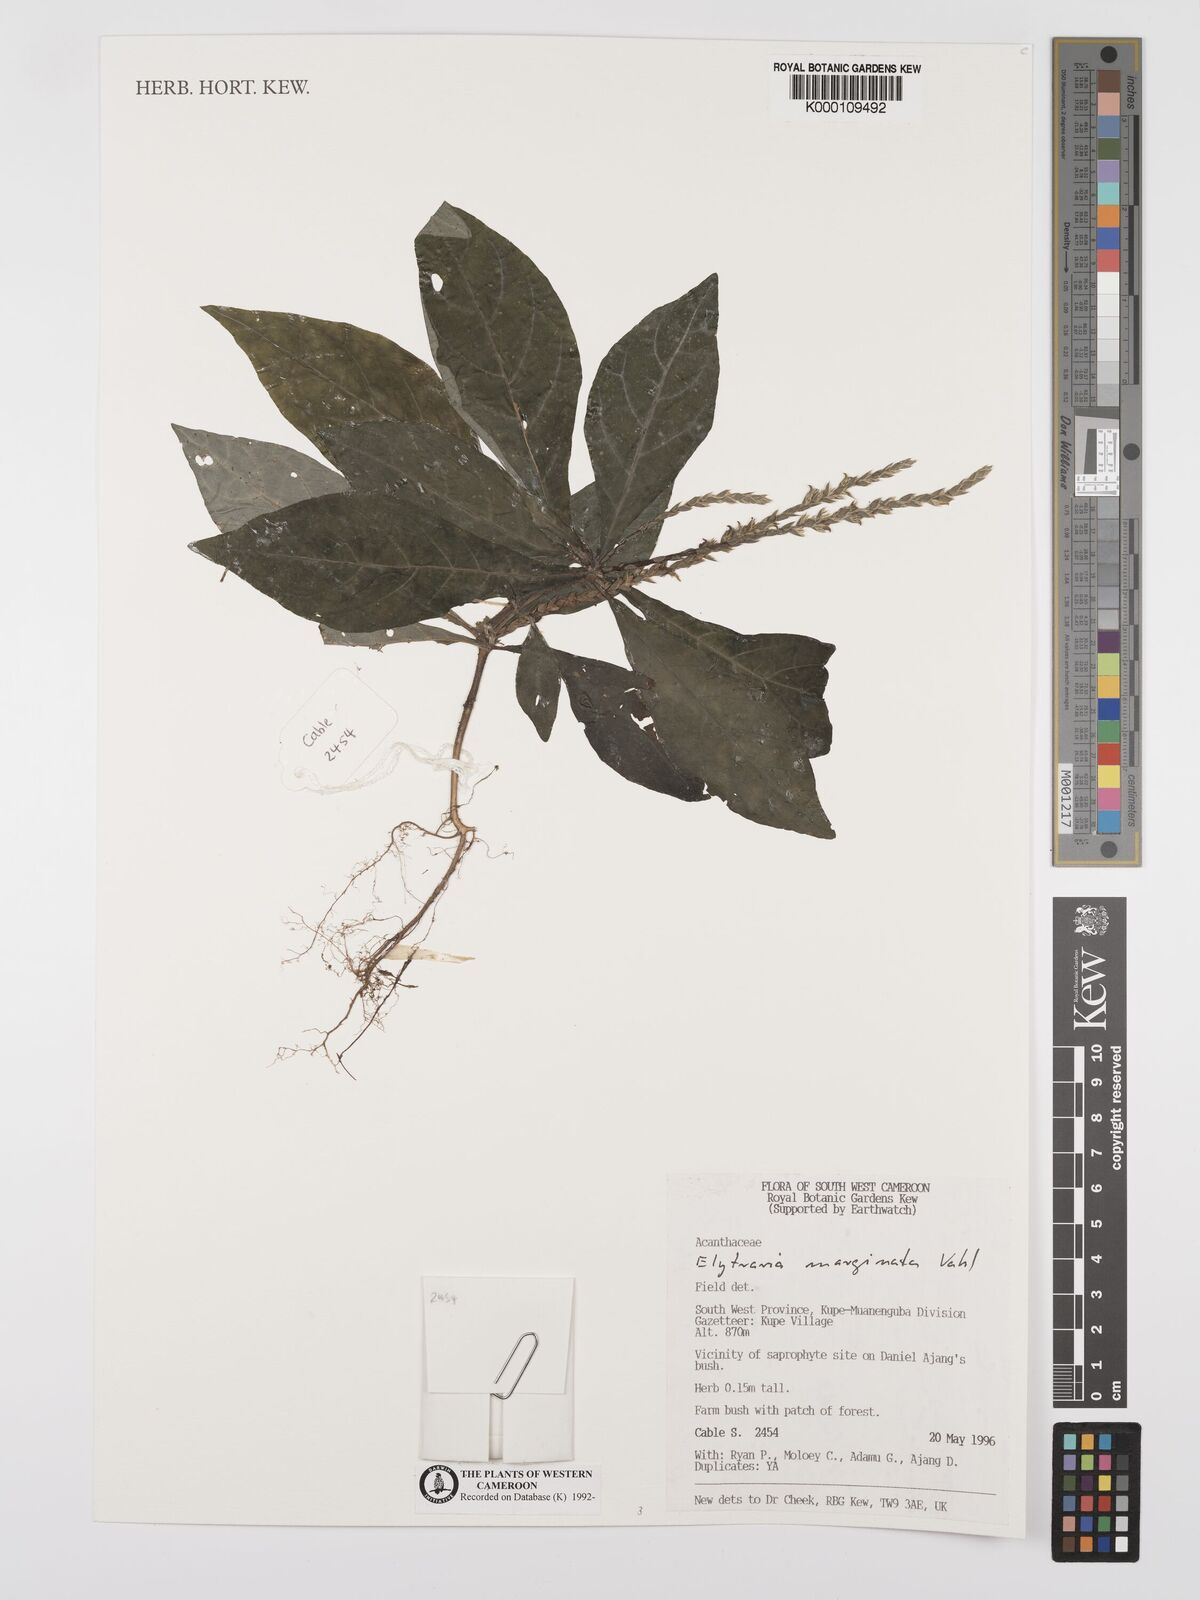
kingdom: Plantae
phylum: Tracheophyta
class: Magnoliopsida
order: Lamiales
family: Acanthaceae
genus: Elytraria
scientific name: Elytraria marginata
